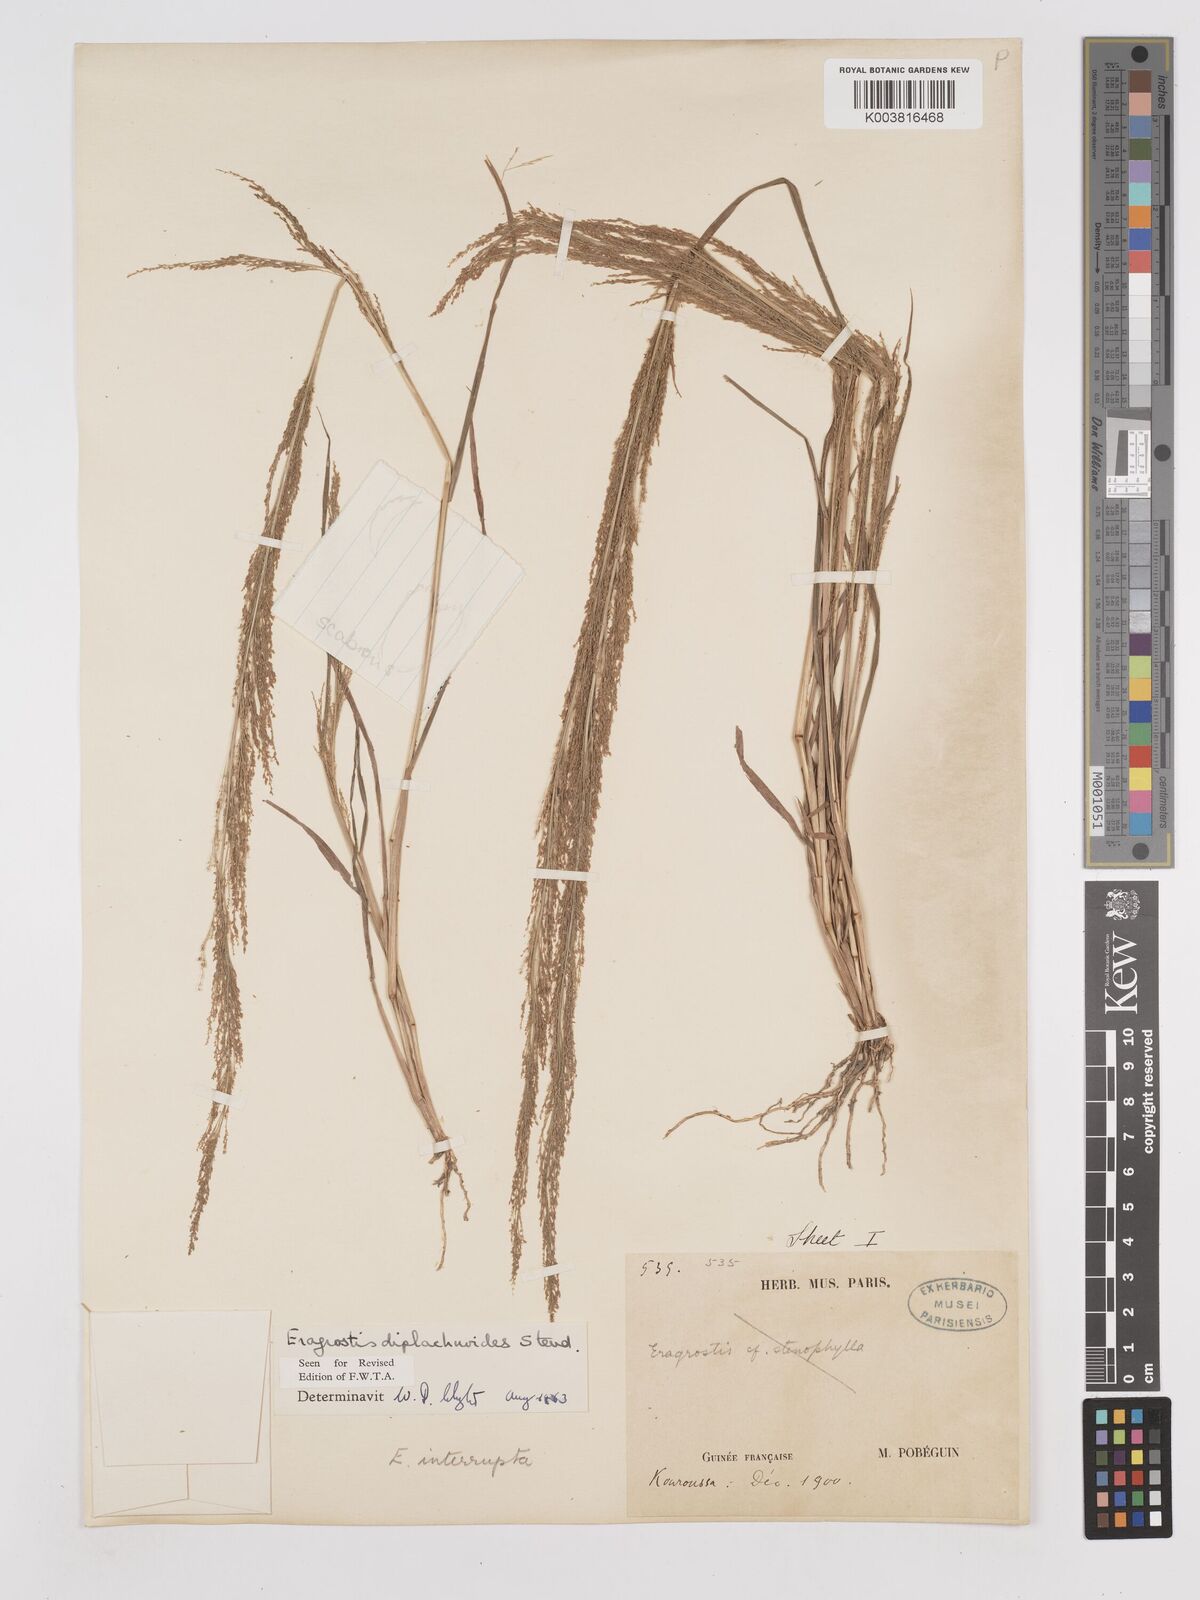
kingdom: Plantae
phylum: Tracheophyta
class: Liliopsida
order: Poales
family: Poaceae
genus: Eragrostis
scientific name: Eragrostis japonica
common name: Pond lovegrass
